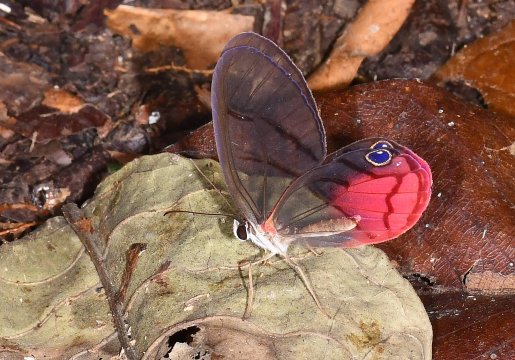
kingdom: Animalia
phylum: Arthropoda
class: Insecta
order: Lepidoptera
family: Nymphalidae
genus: Cithaerias
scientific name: Cithaerias pireta
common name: Rusted Clearwing-Satyr
